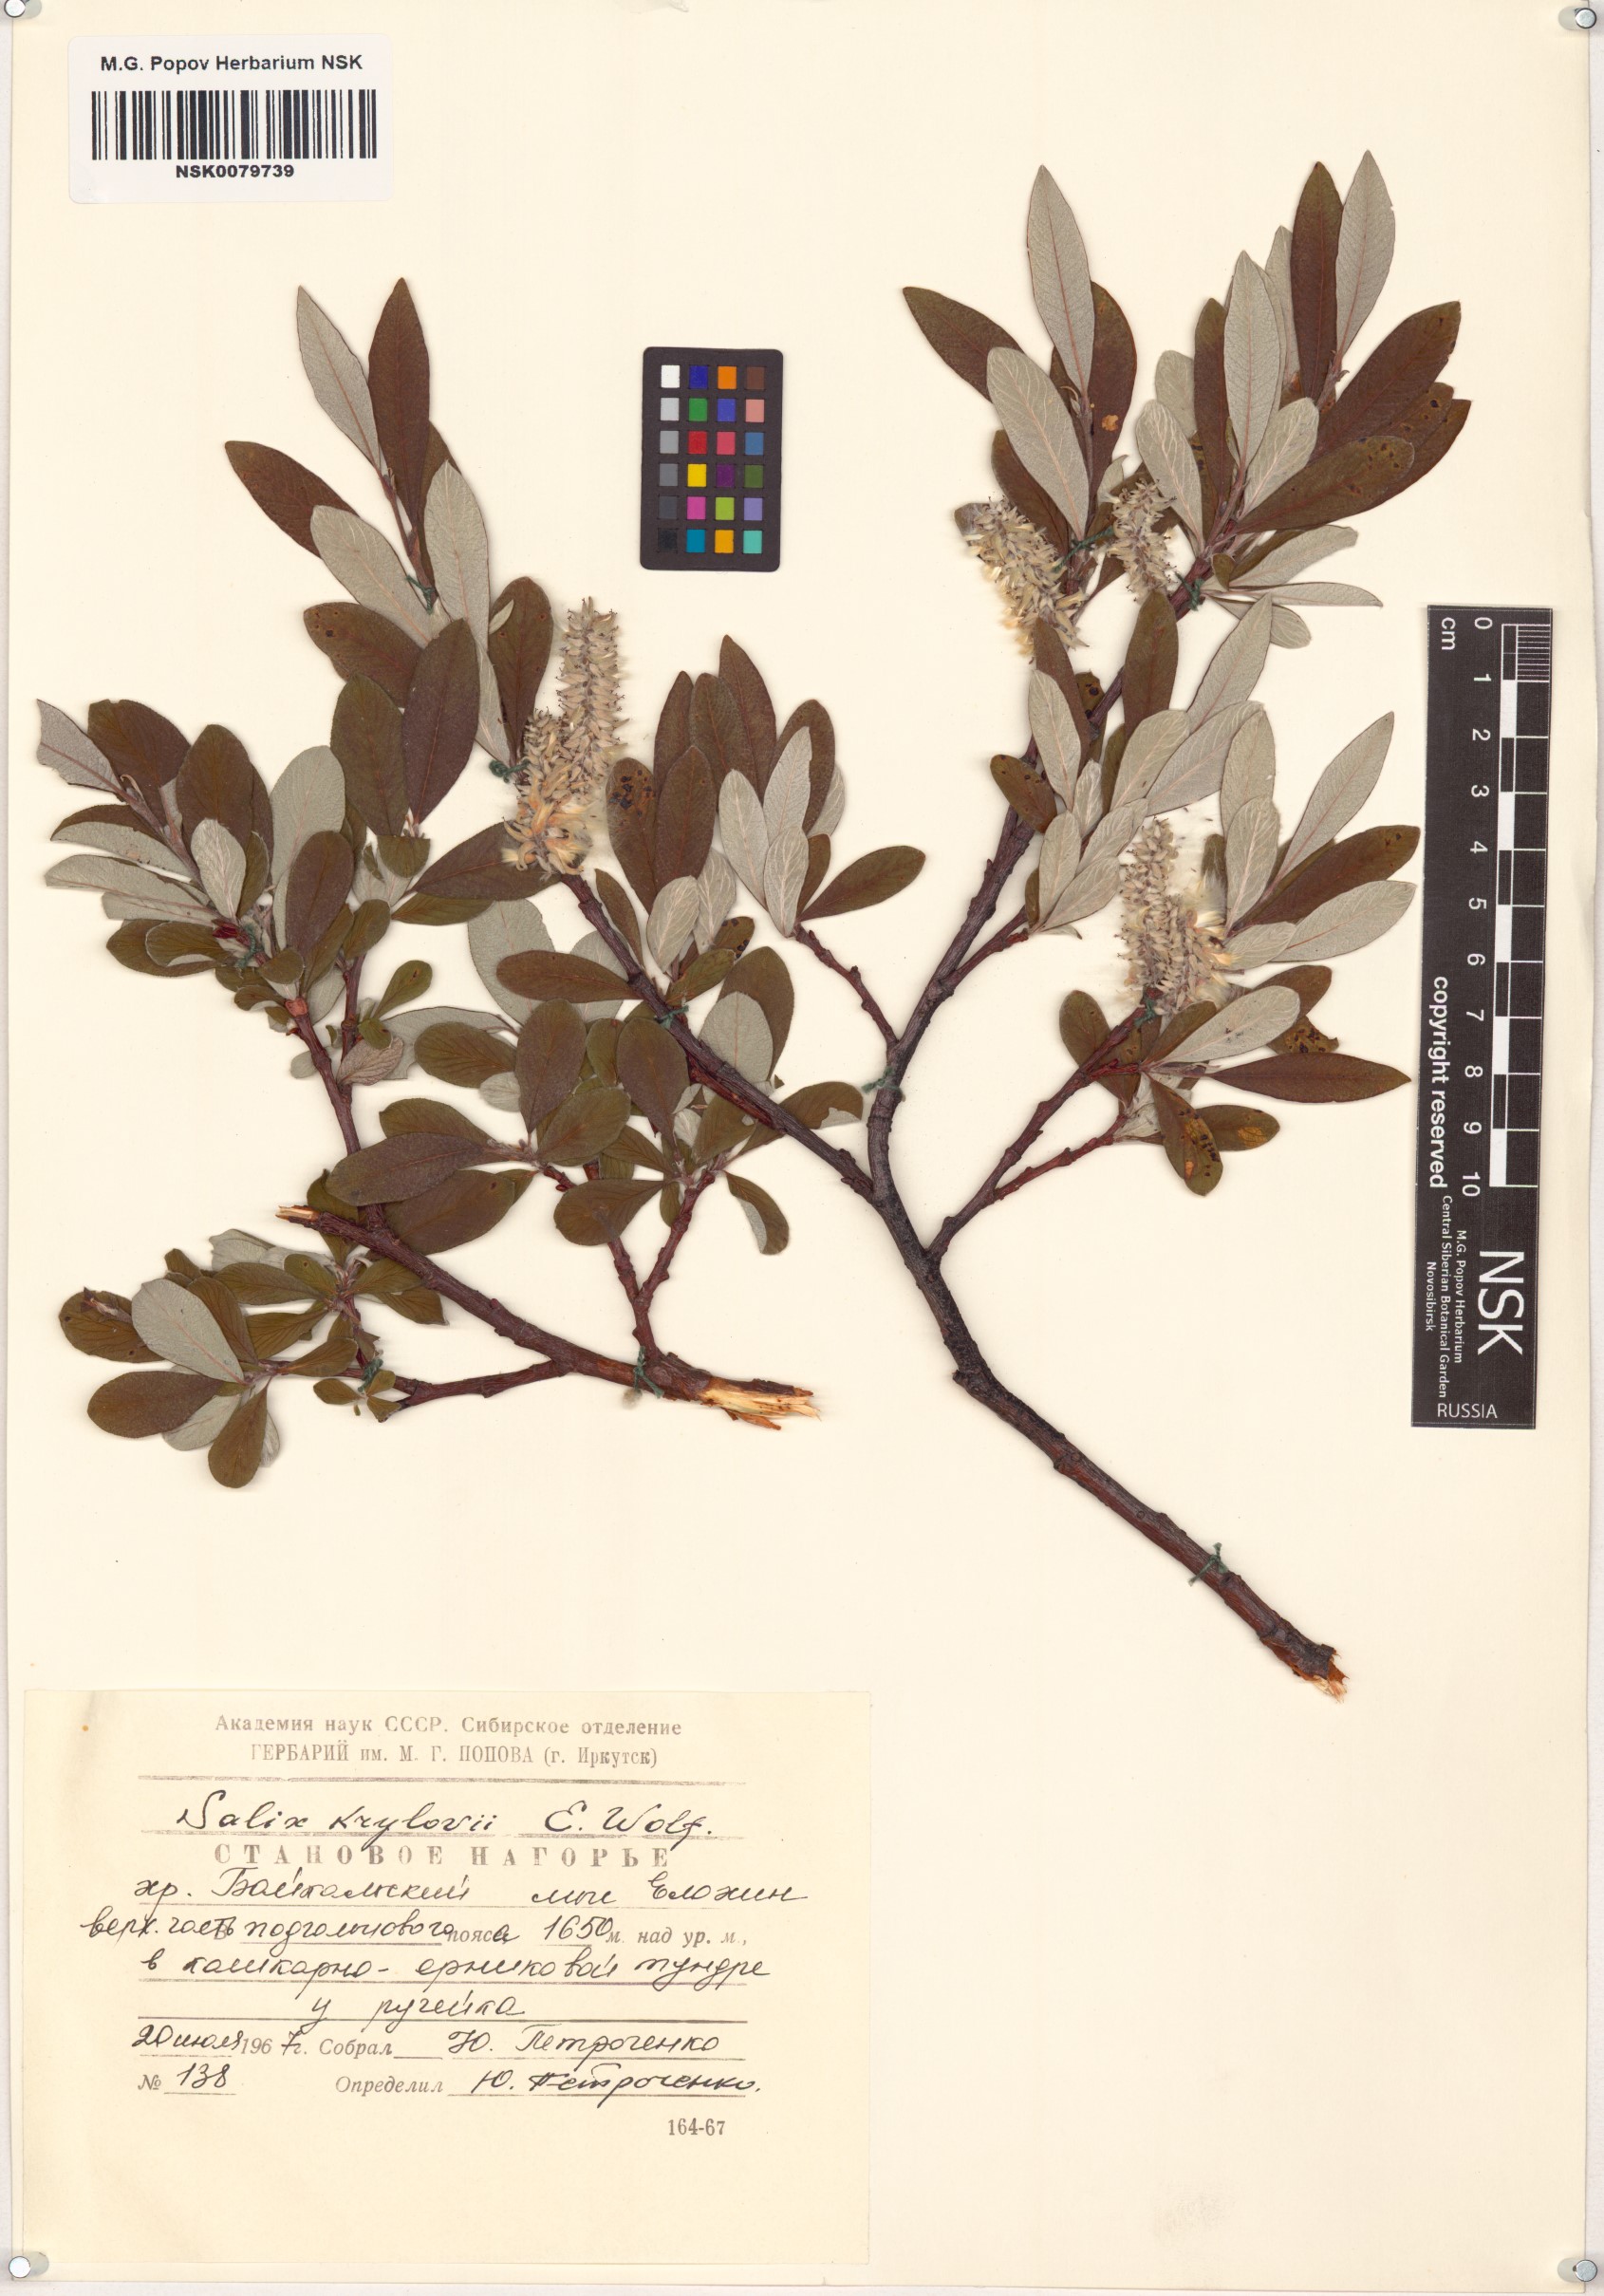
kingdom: Plantae
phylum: Tracheophyta
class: Magnoliopsida
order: Malpighiales
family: Salicaceae
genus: Salix
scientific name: Salix krylovii
